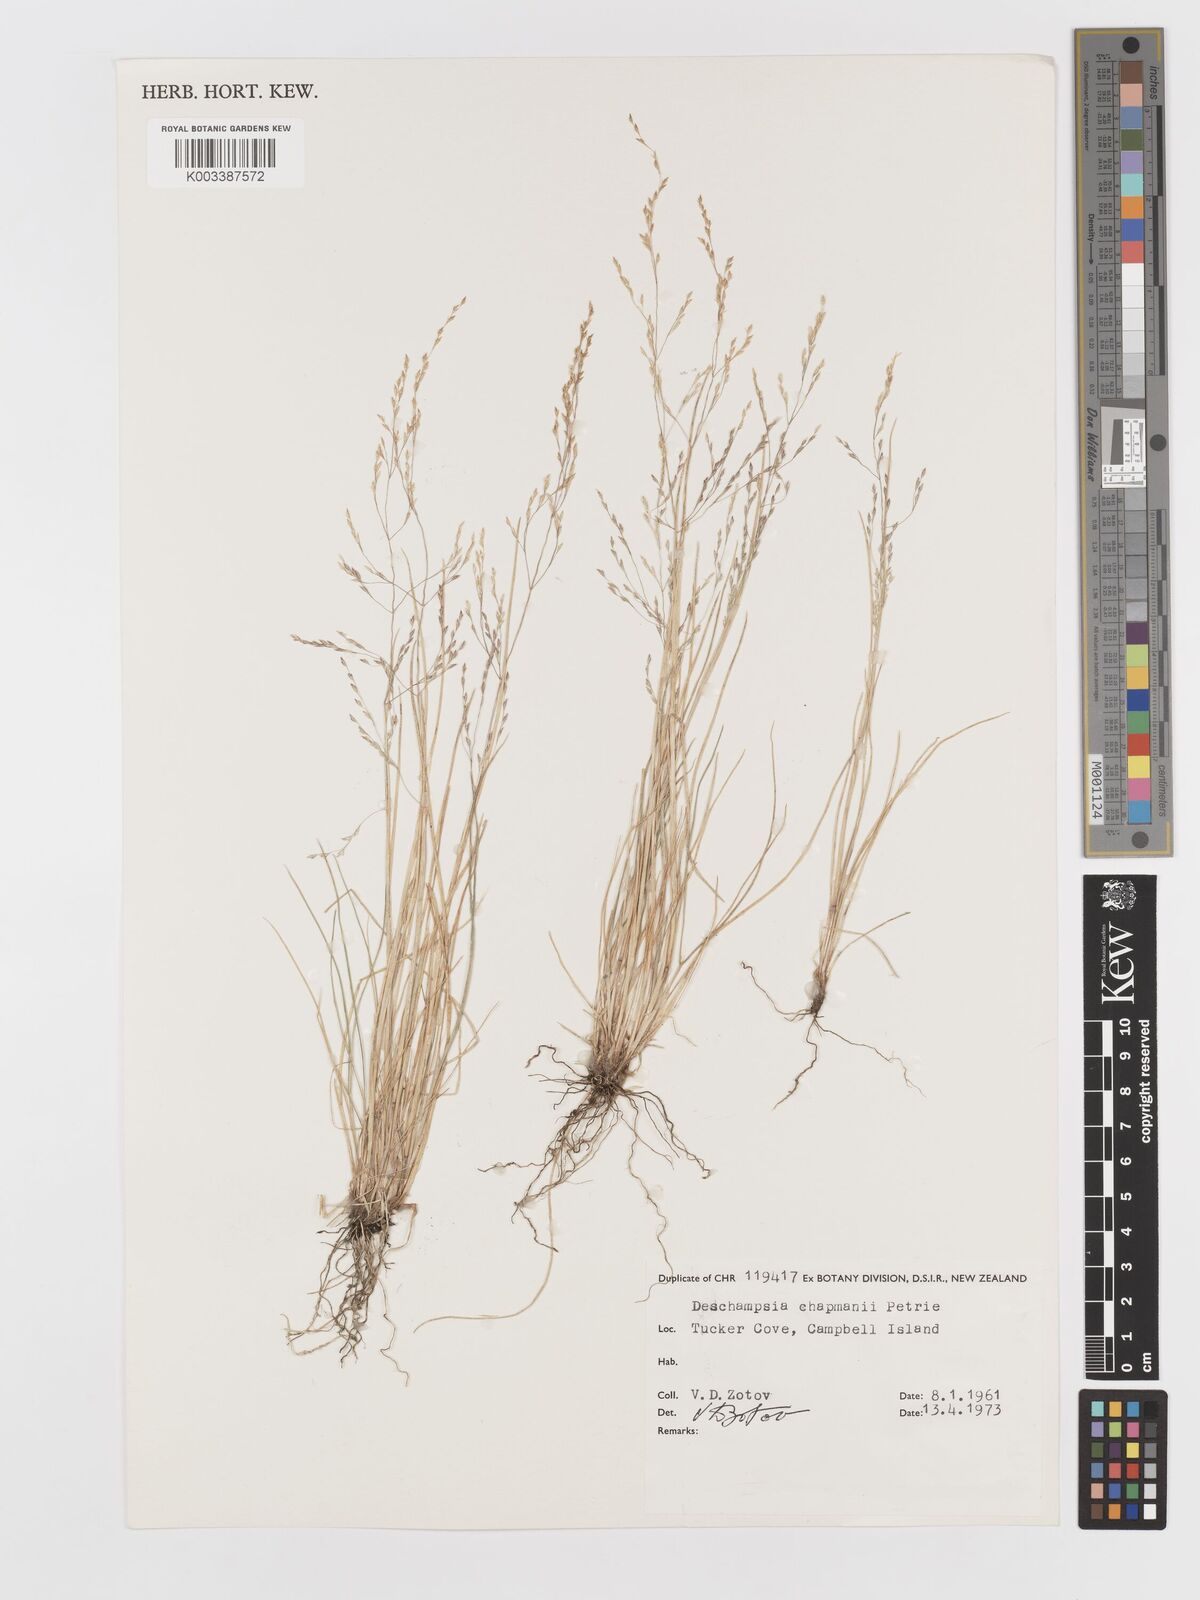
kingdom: Plantae
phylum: Tracheophyta
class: Liliopsida
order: Poales
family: Poaceae
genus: Deschampsia
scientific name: Deschampsia chapmanii
